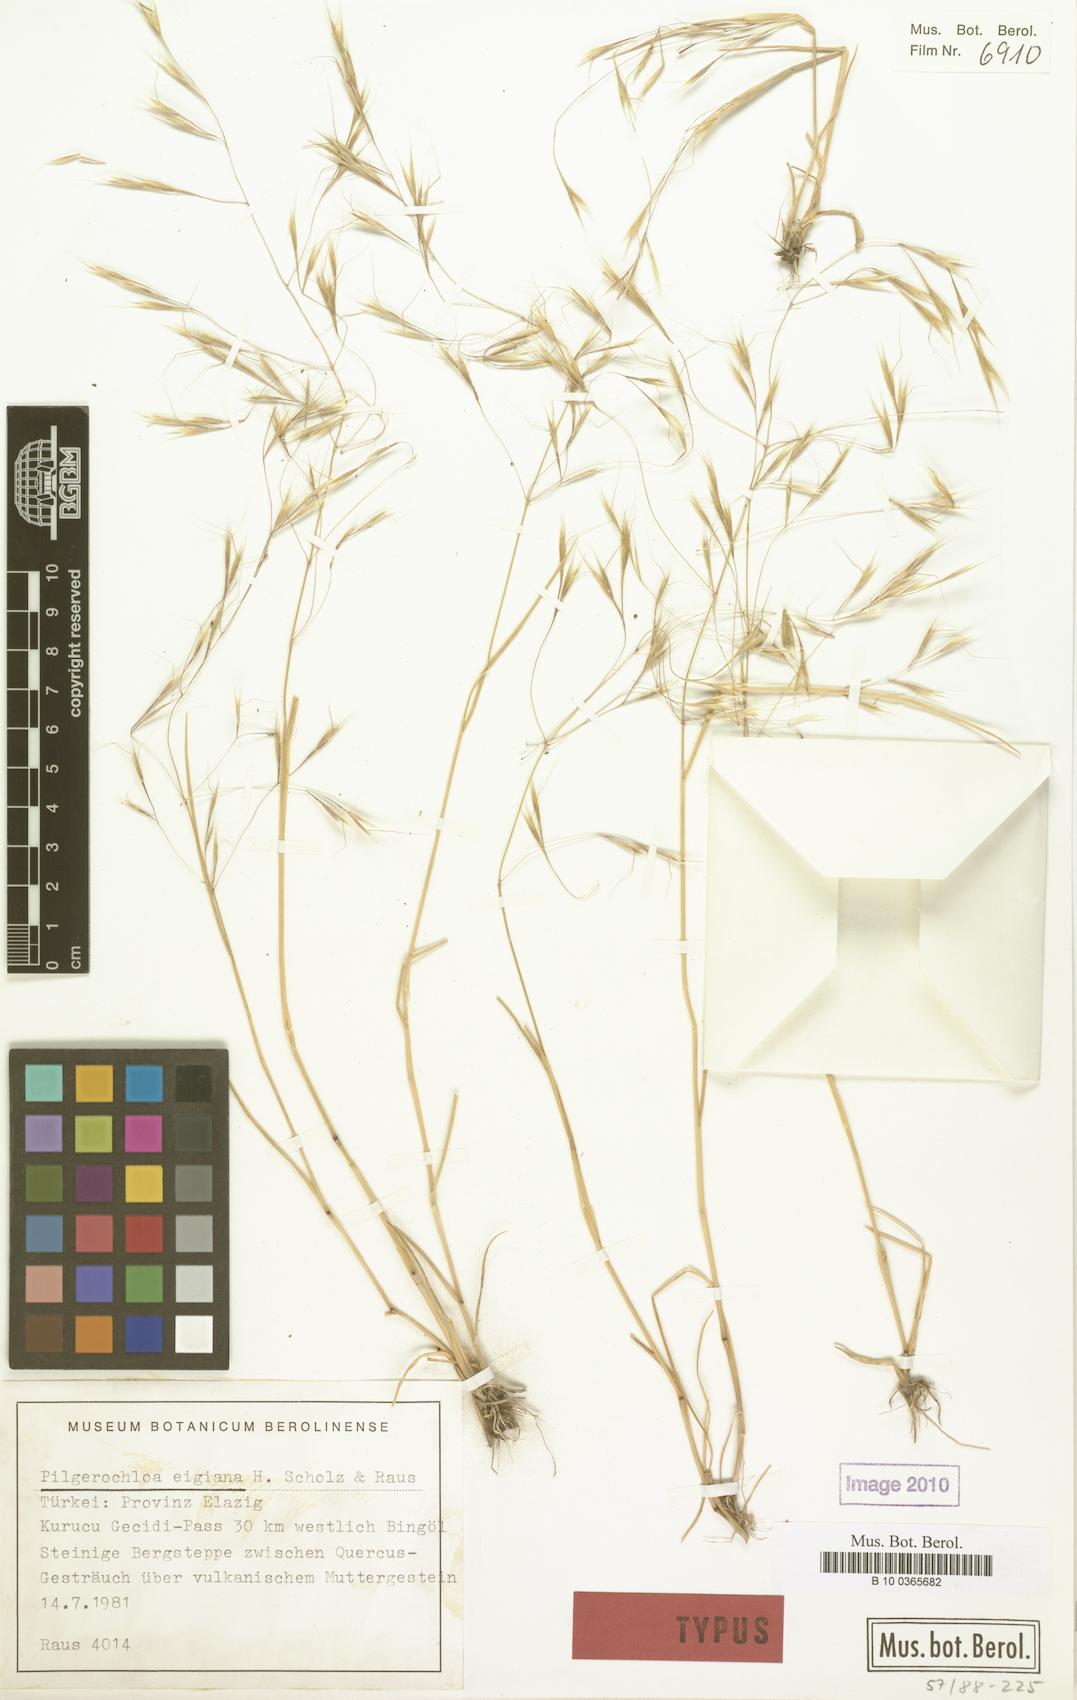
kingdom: Plantae
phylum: Tracheophyta
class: Liliopsida
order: Poales
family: Poaceae
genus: Ventenata
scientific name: Ventenata eigiana
